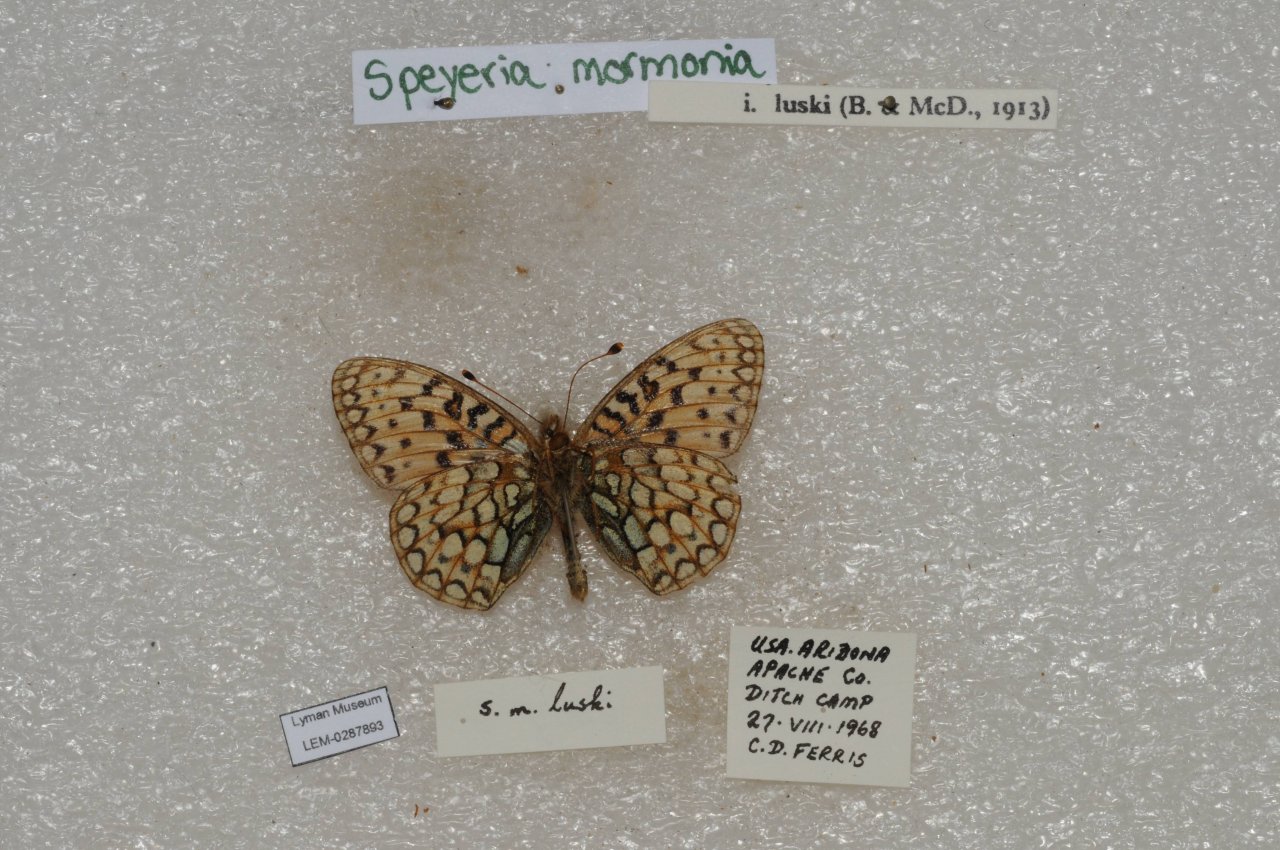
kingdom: Animalia
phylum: Arthropoda
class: Insecta
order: Lepidoptera
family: Nymphalidae
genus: Speyeria
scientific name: Speyeria mormonia
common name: Mormon Fritillary
